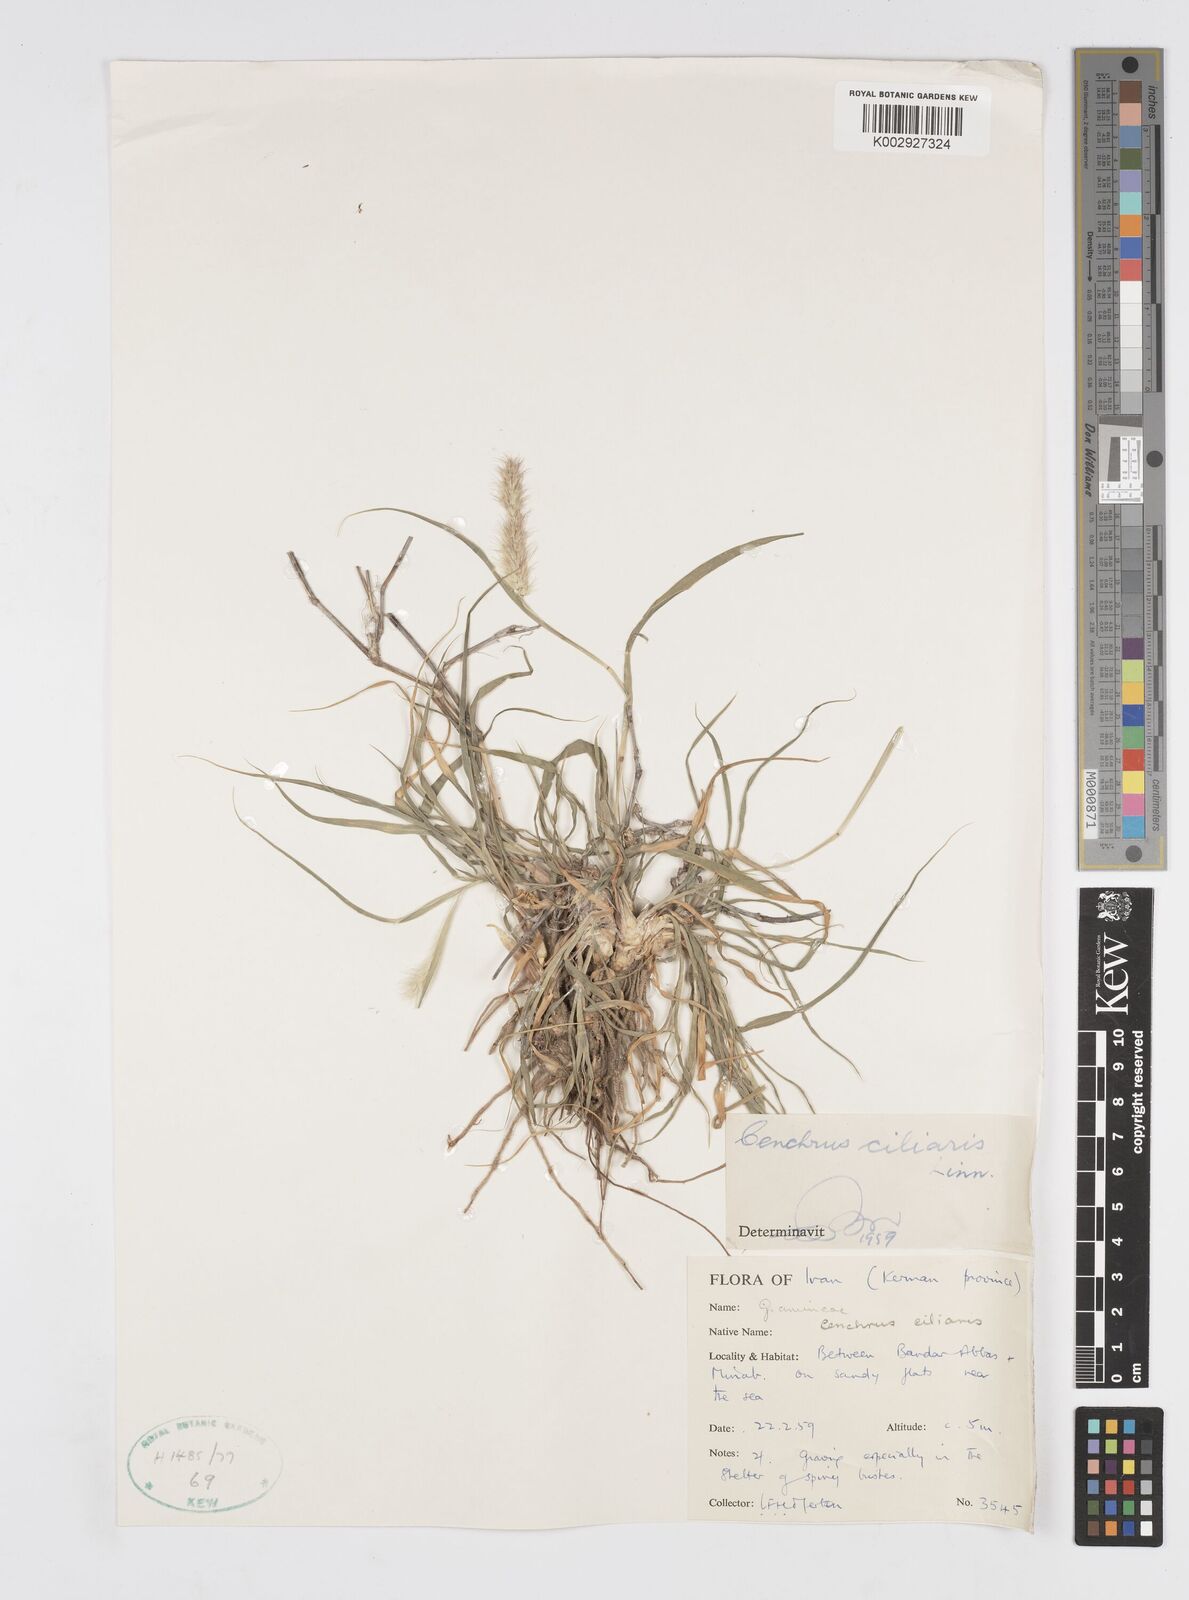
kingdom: Plantae
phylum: Tracheophyta
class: Liliopsida
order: Poales
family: Poaceae
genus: Cenchrus
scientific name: Cenchrus ciliaris
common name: Buffelgrass
